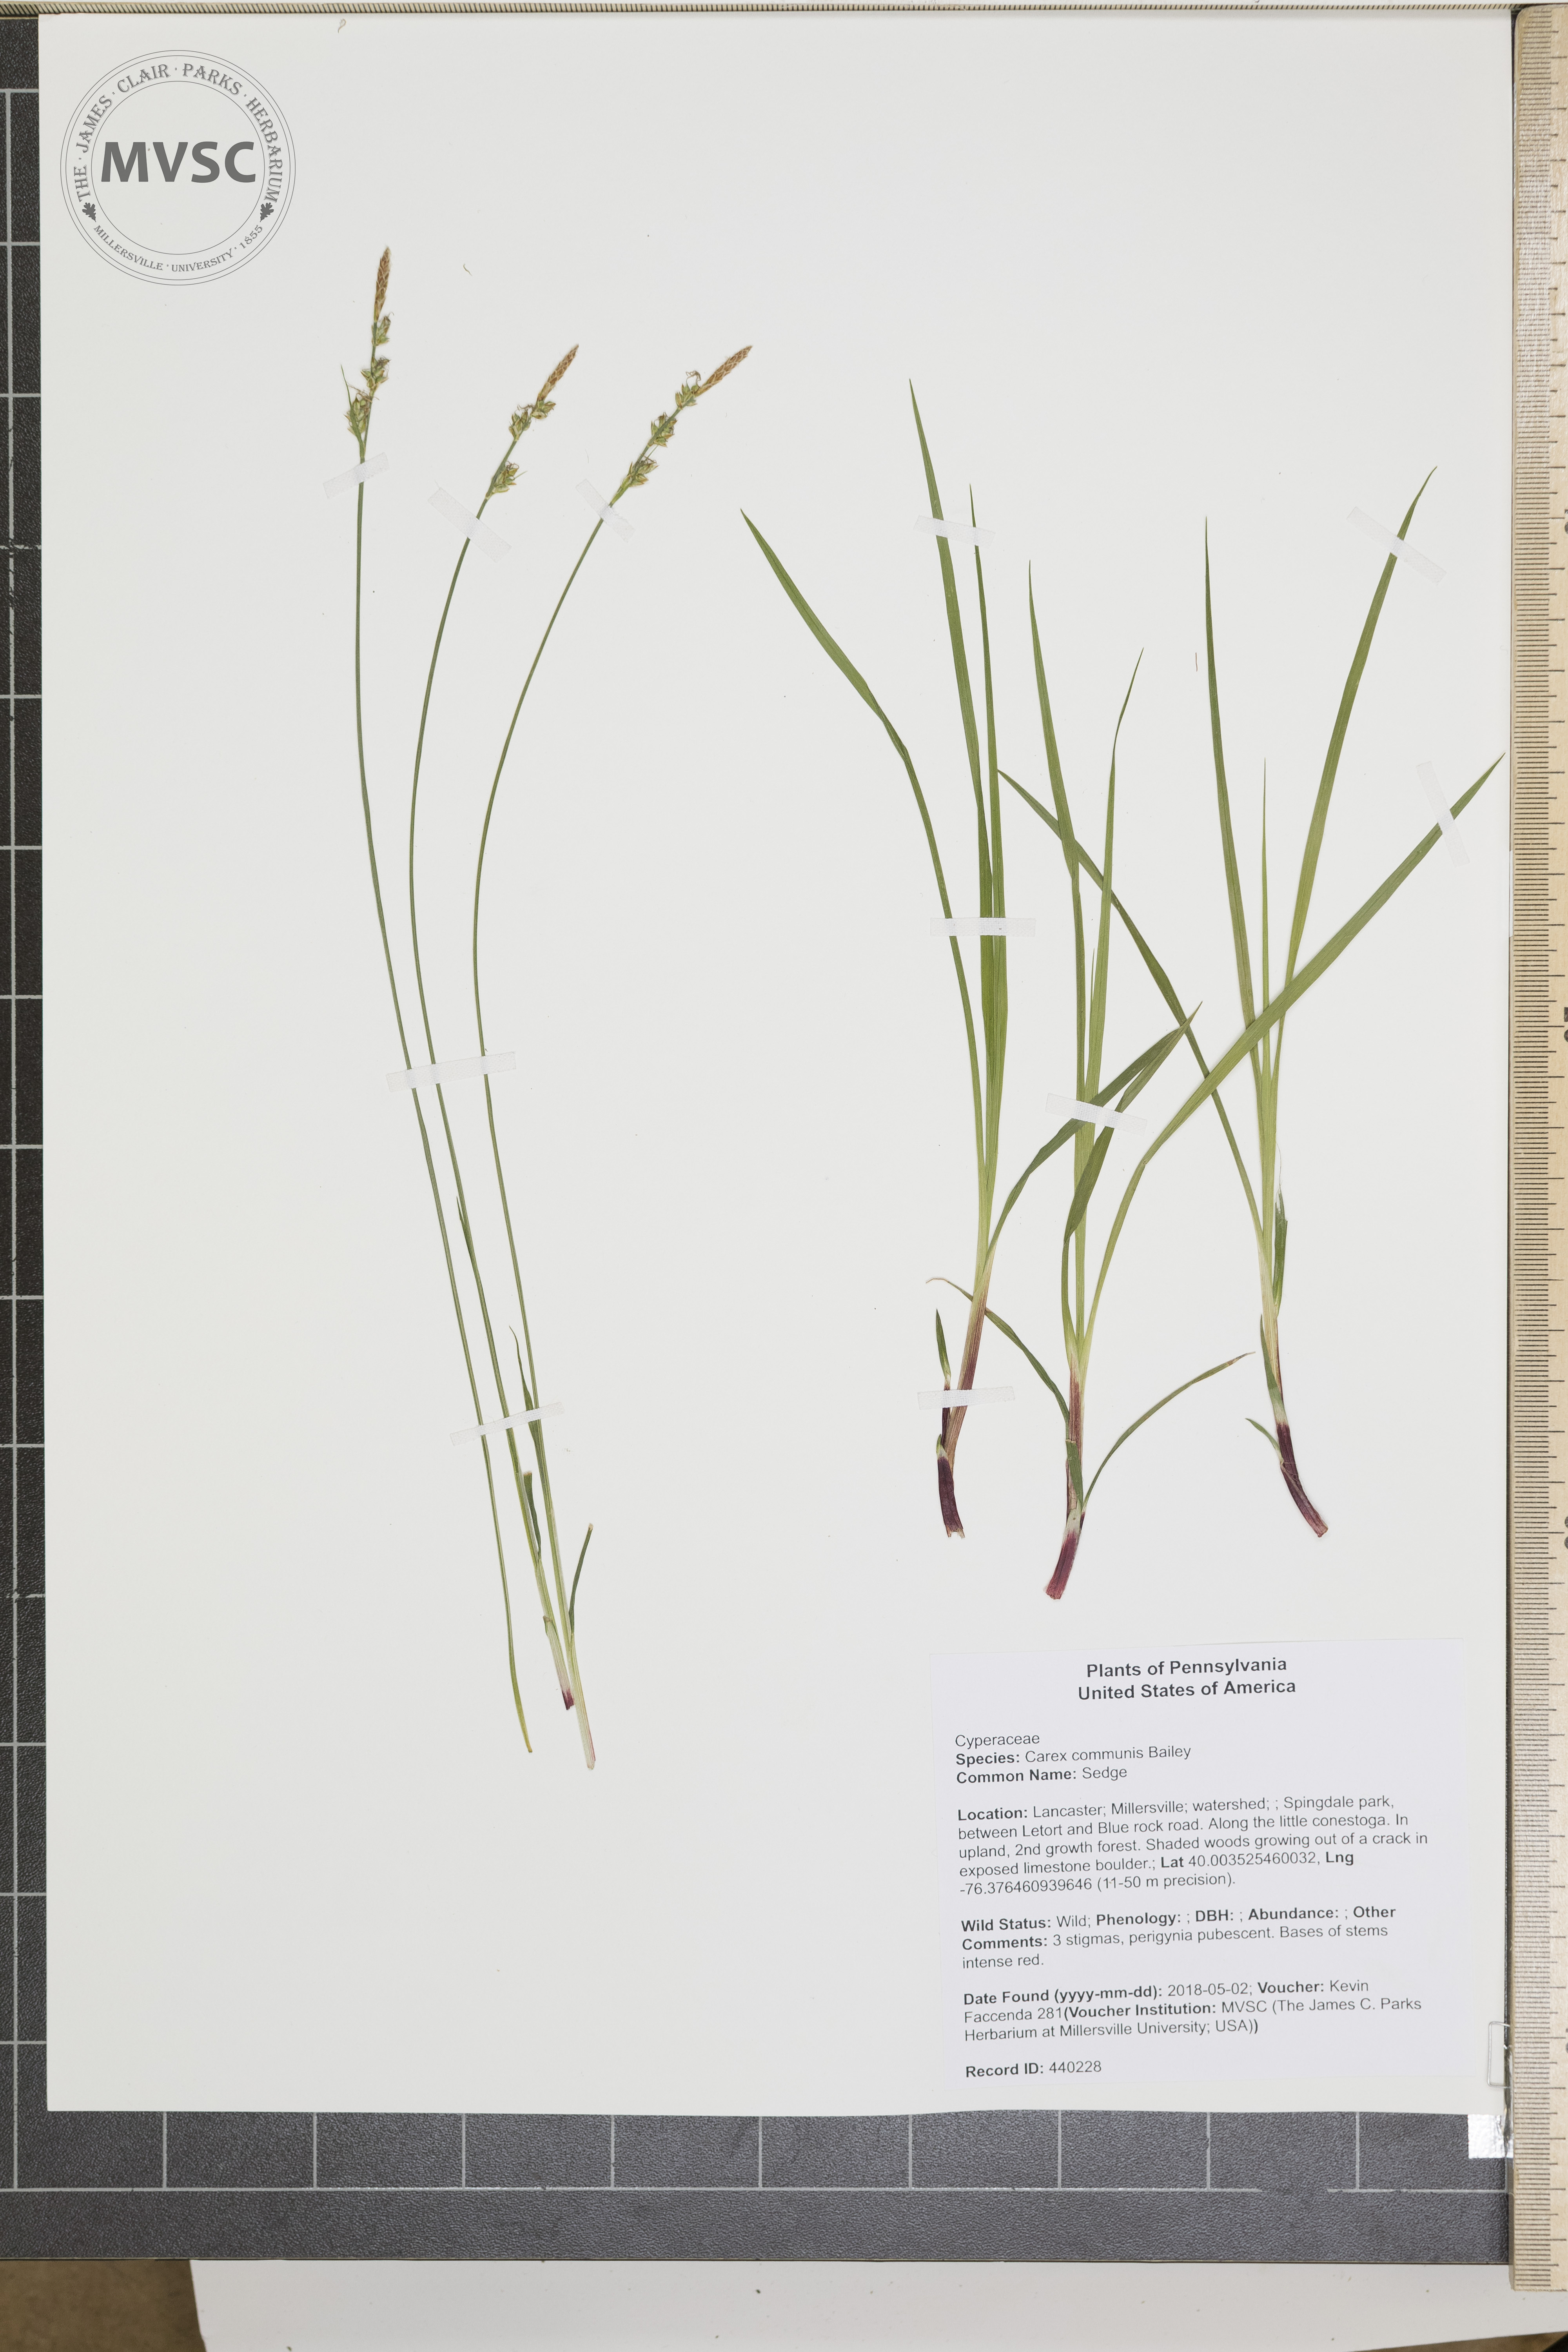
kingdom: Plantae
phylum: Tracheophyta
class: Liliopsida
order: Poales
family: Cyperaceae
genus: Carex
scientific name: Carex communis
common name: Sedge
